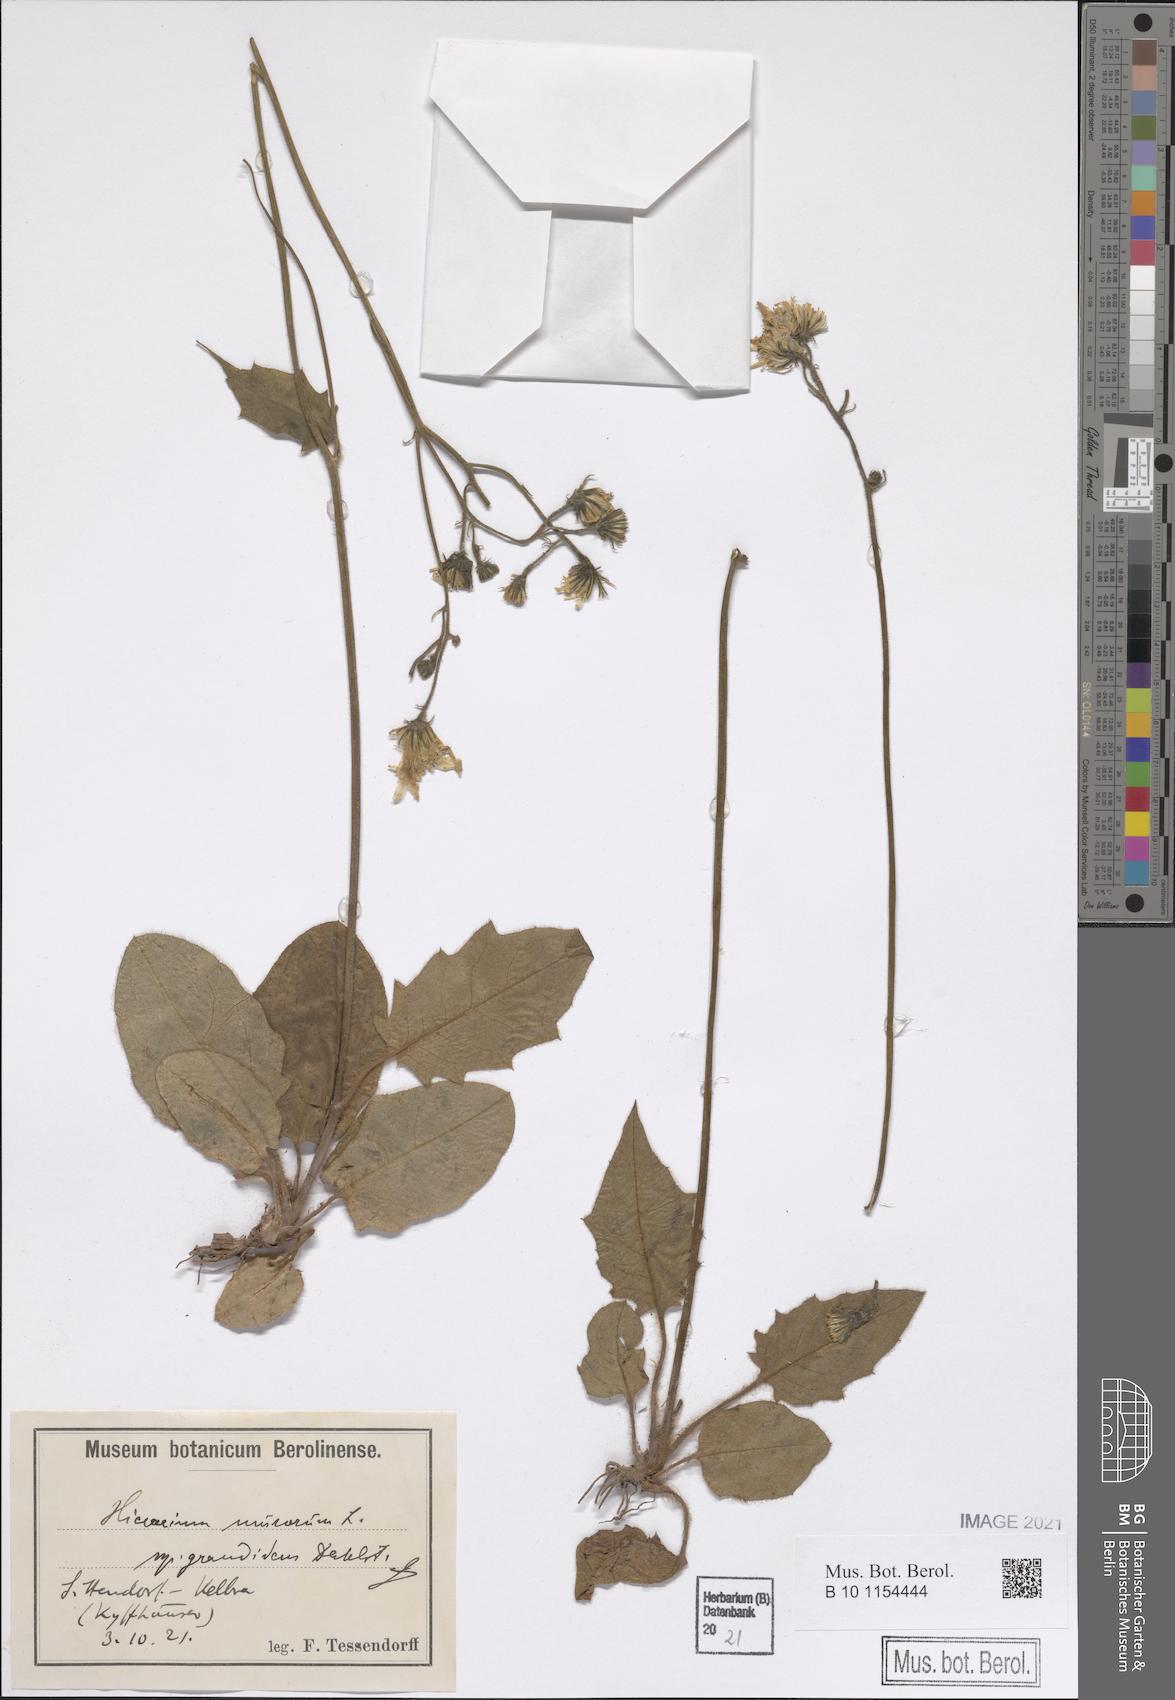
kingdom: Plantae
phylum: Tracheophyta
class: Magnoliopsida
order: Asterales
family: Asteraceae
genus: Hieracium
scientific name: Hieracium murorum
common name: Wall hawkweed
